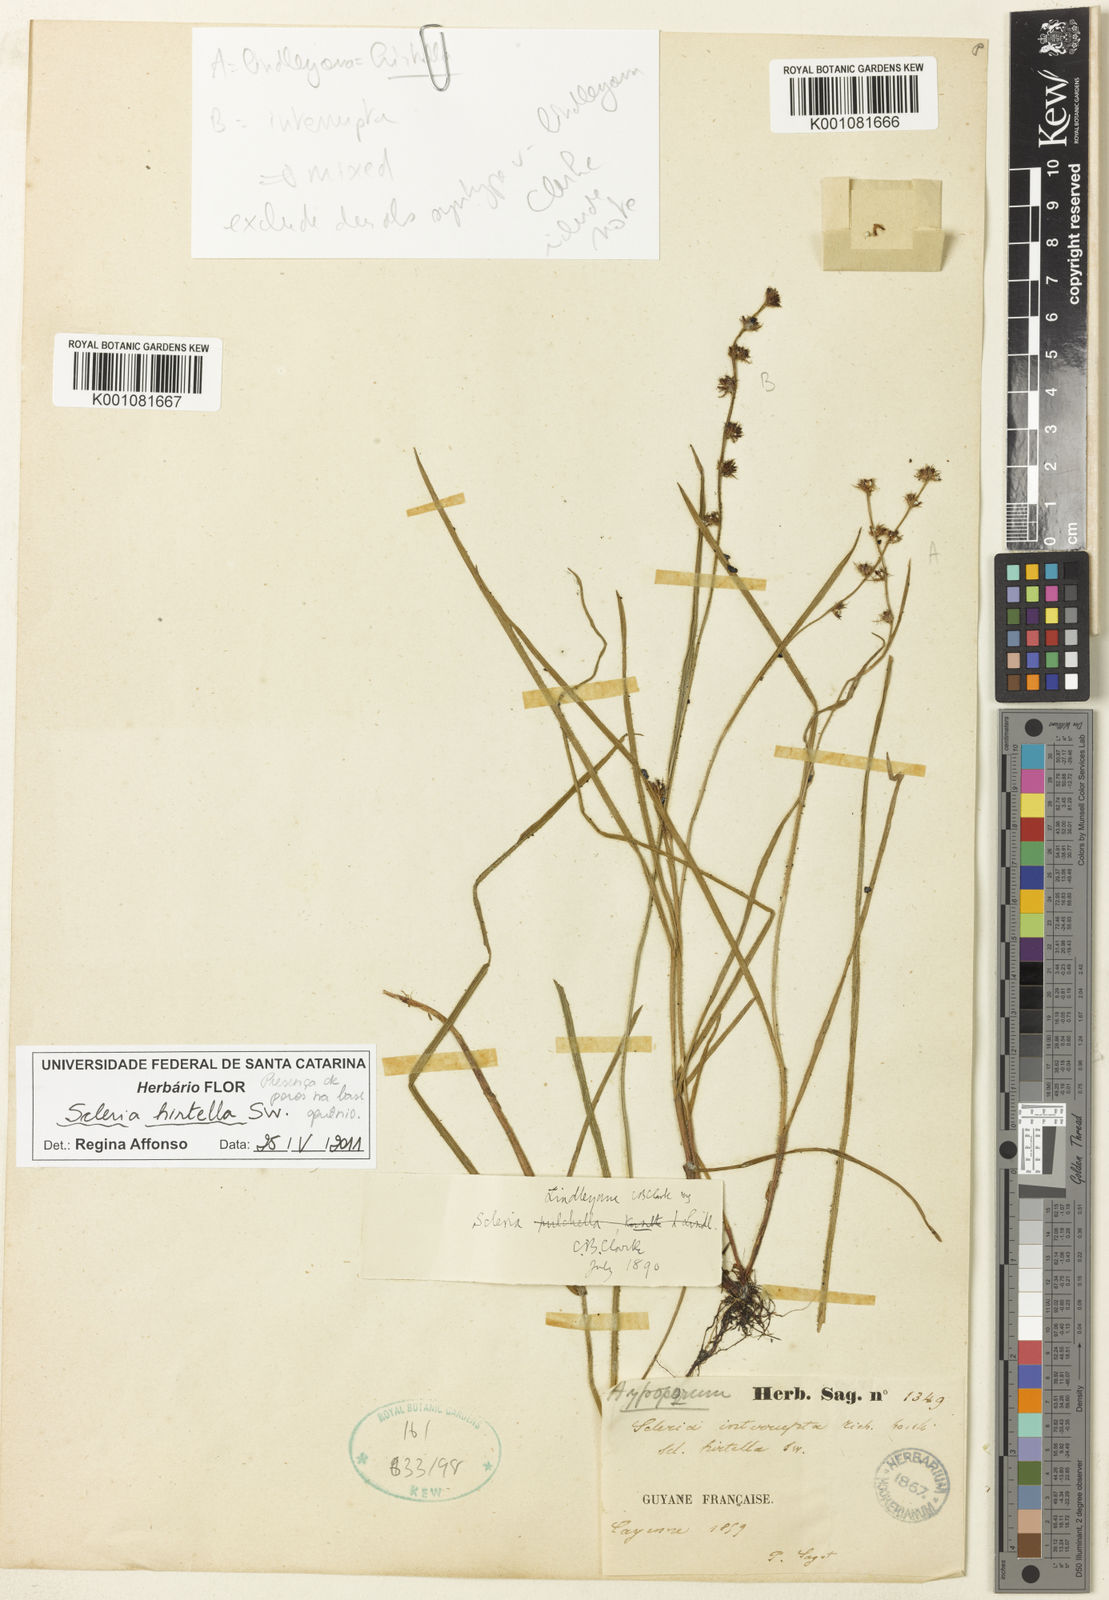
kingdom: Plantae
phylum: Tracheophyta
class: Liliopsida
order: Poales
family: Cyperaceae
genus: Scleria
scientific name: Scleria hirtella
